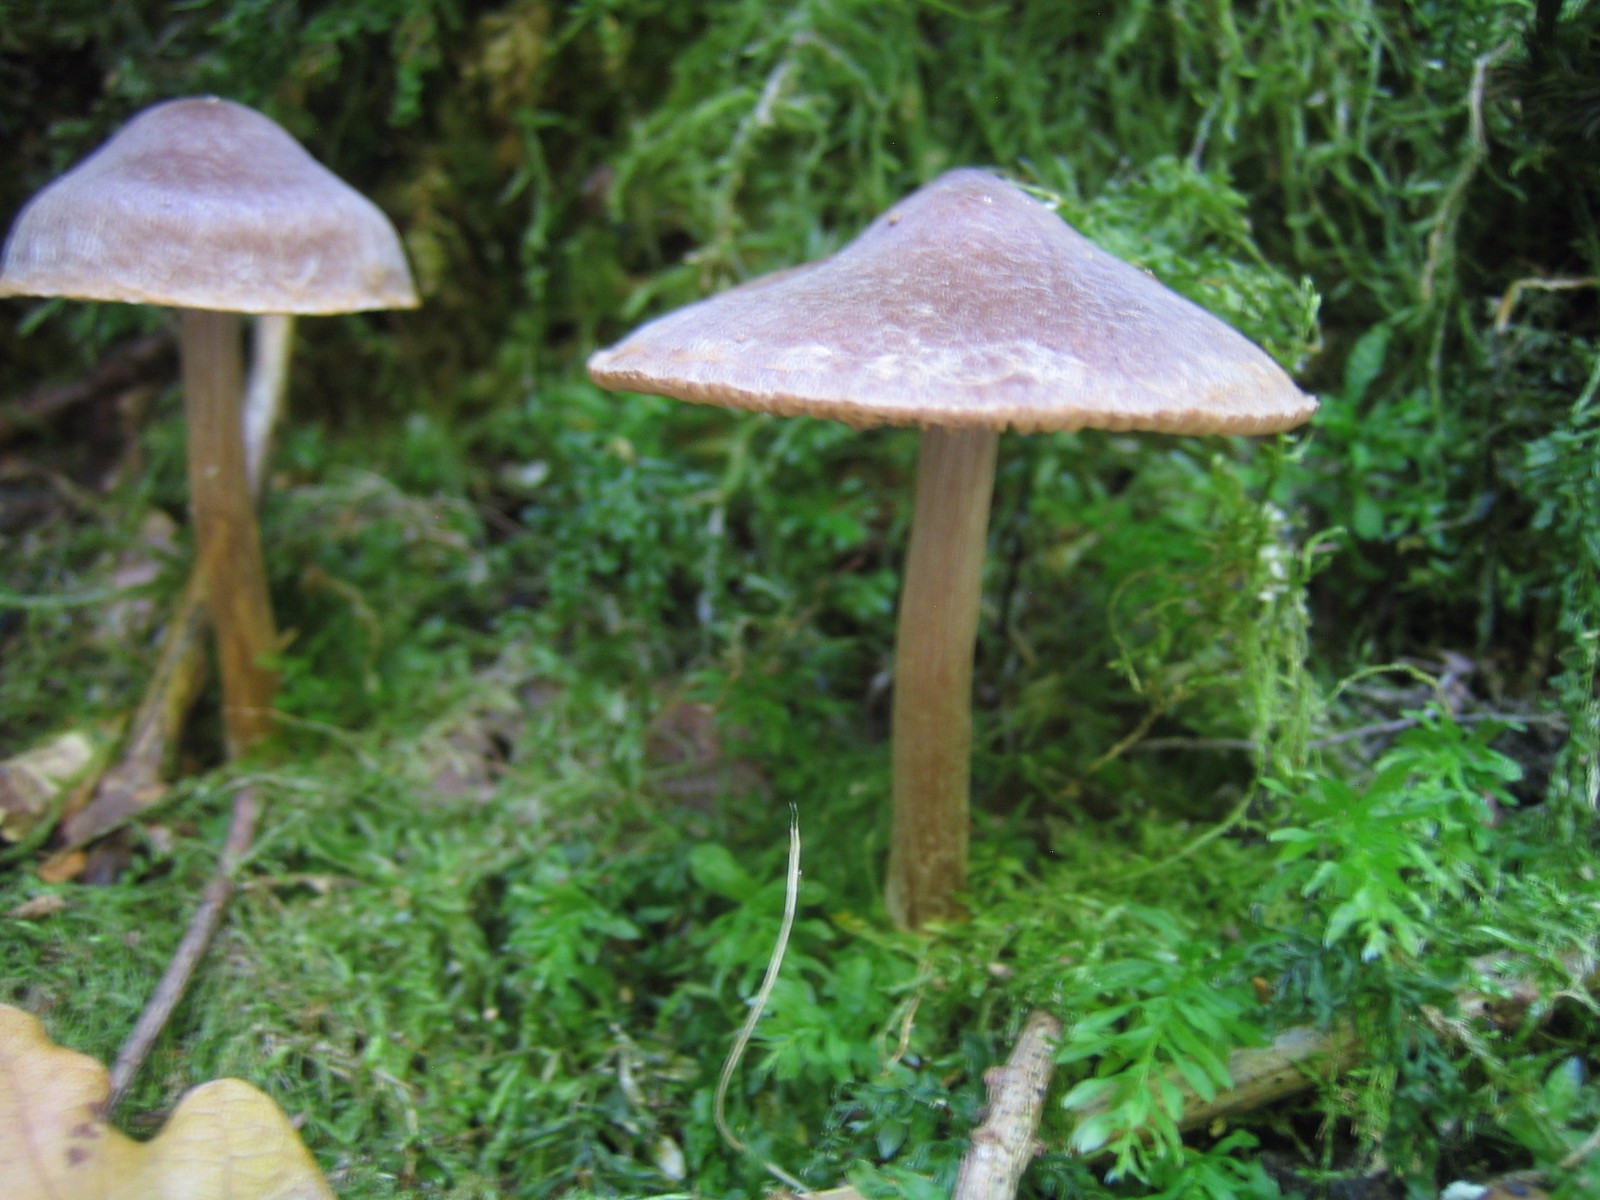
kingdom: Fungi
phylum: Basidiomycota
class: Agaricomycetes
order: Agaricales
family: Cortinariaceae
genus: Cortinarius
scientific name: Cortinarius
